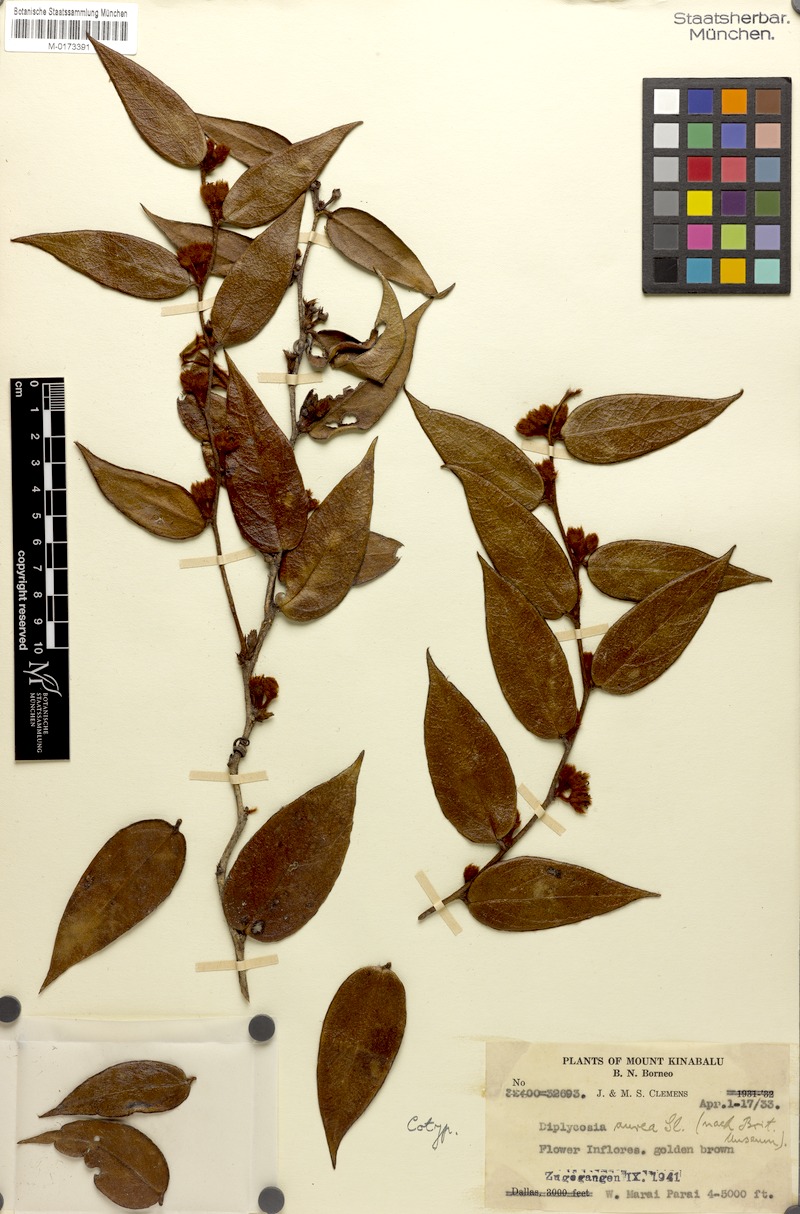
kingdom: Plantae
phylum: Tracheophyta
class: Magnoliopsida
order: Ericales
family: Ericaceae
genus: Gaultheria
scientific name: Gaultheria aurea
